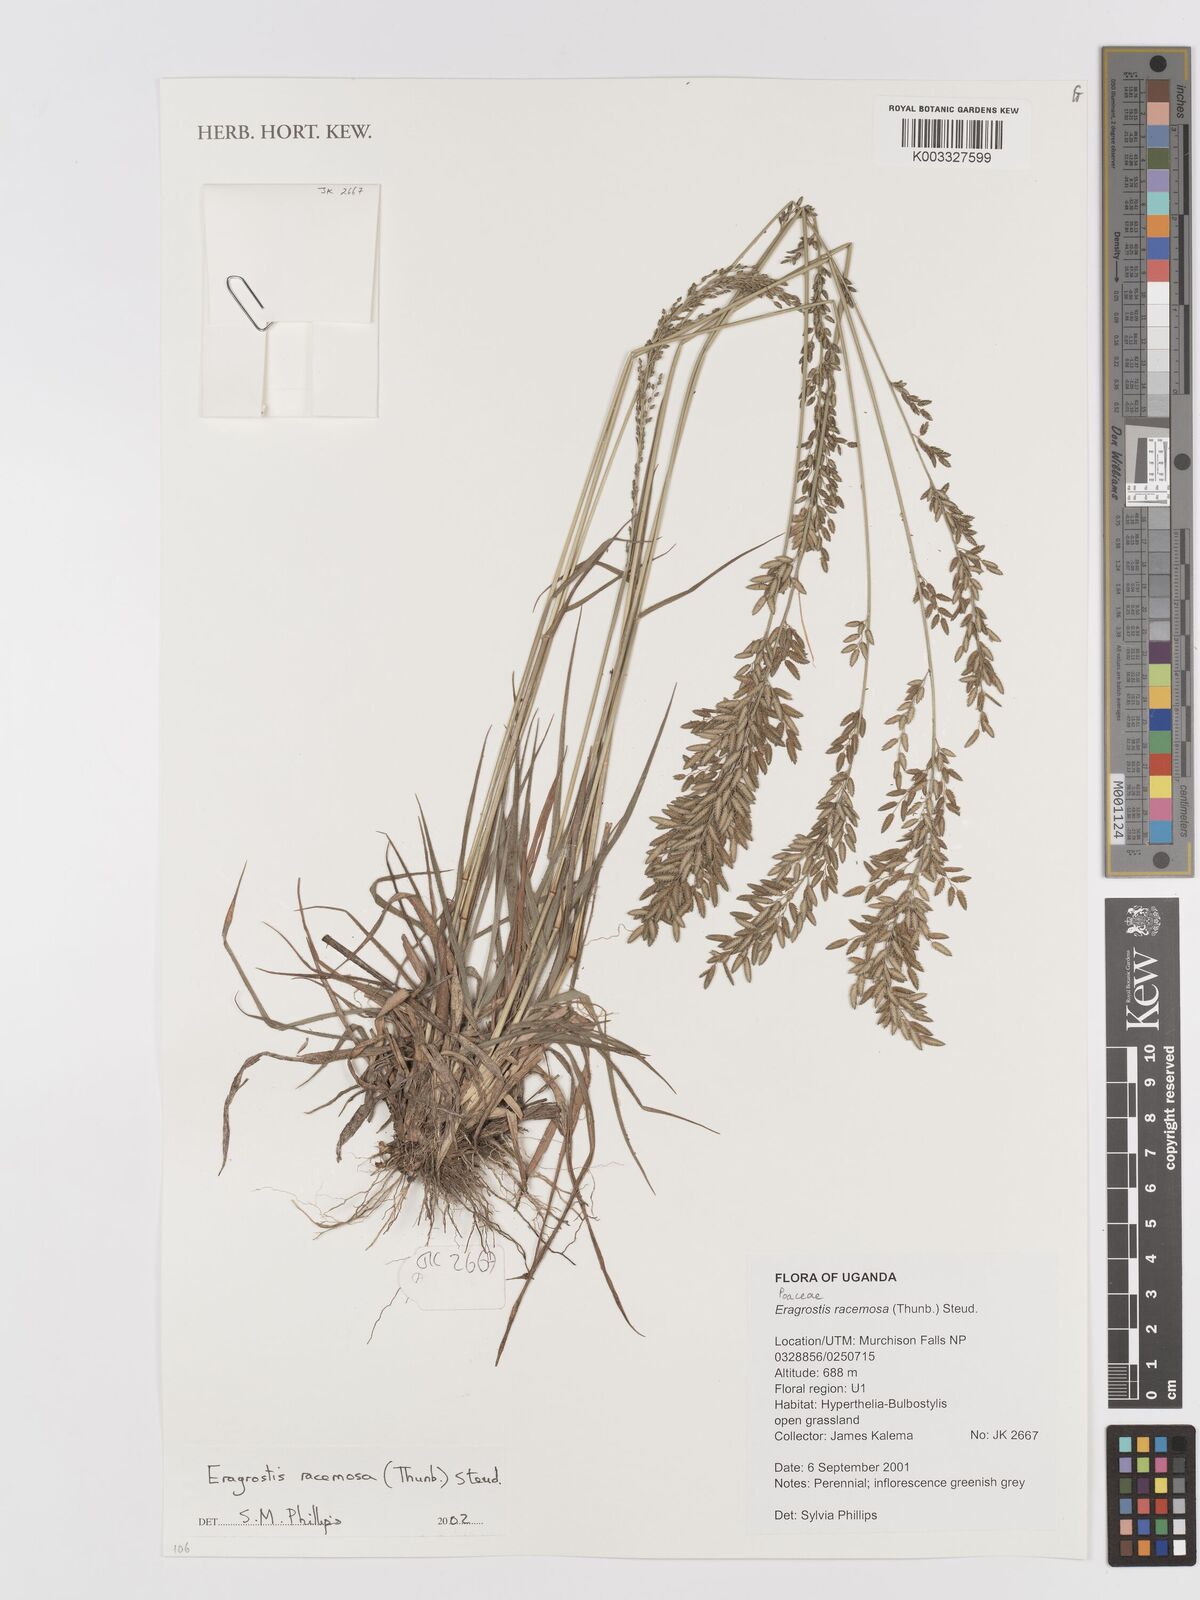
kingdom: Plantae
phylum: Tracheophyta
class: Liliopsida
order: Poales
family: Poaceae
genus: Eragrostis
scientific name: Eragrostis racemosa
